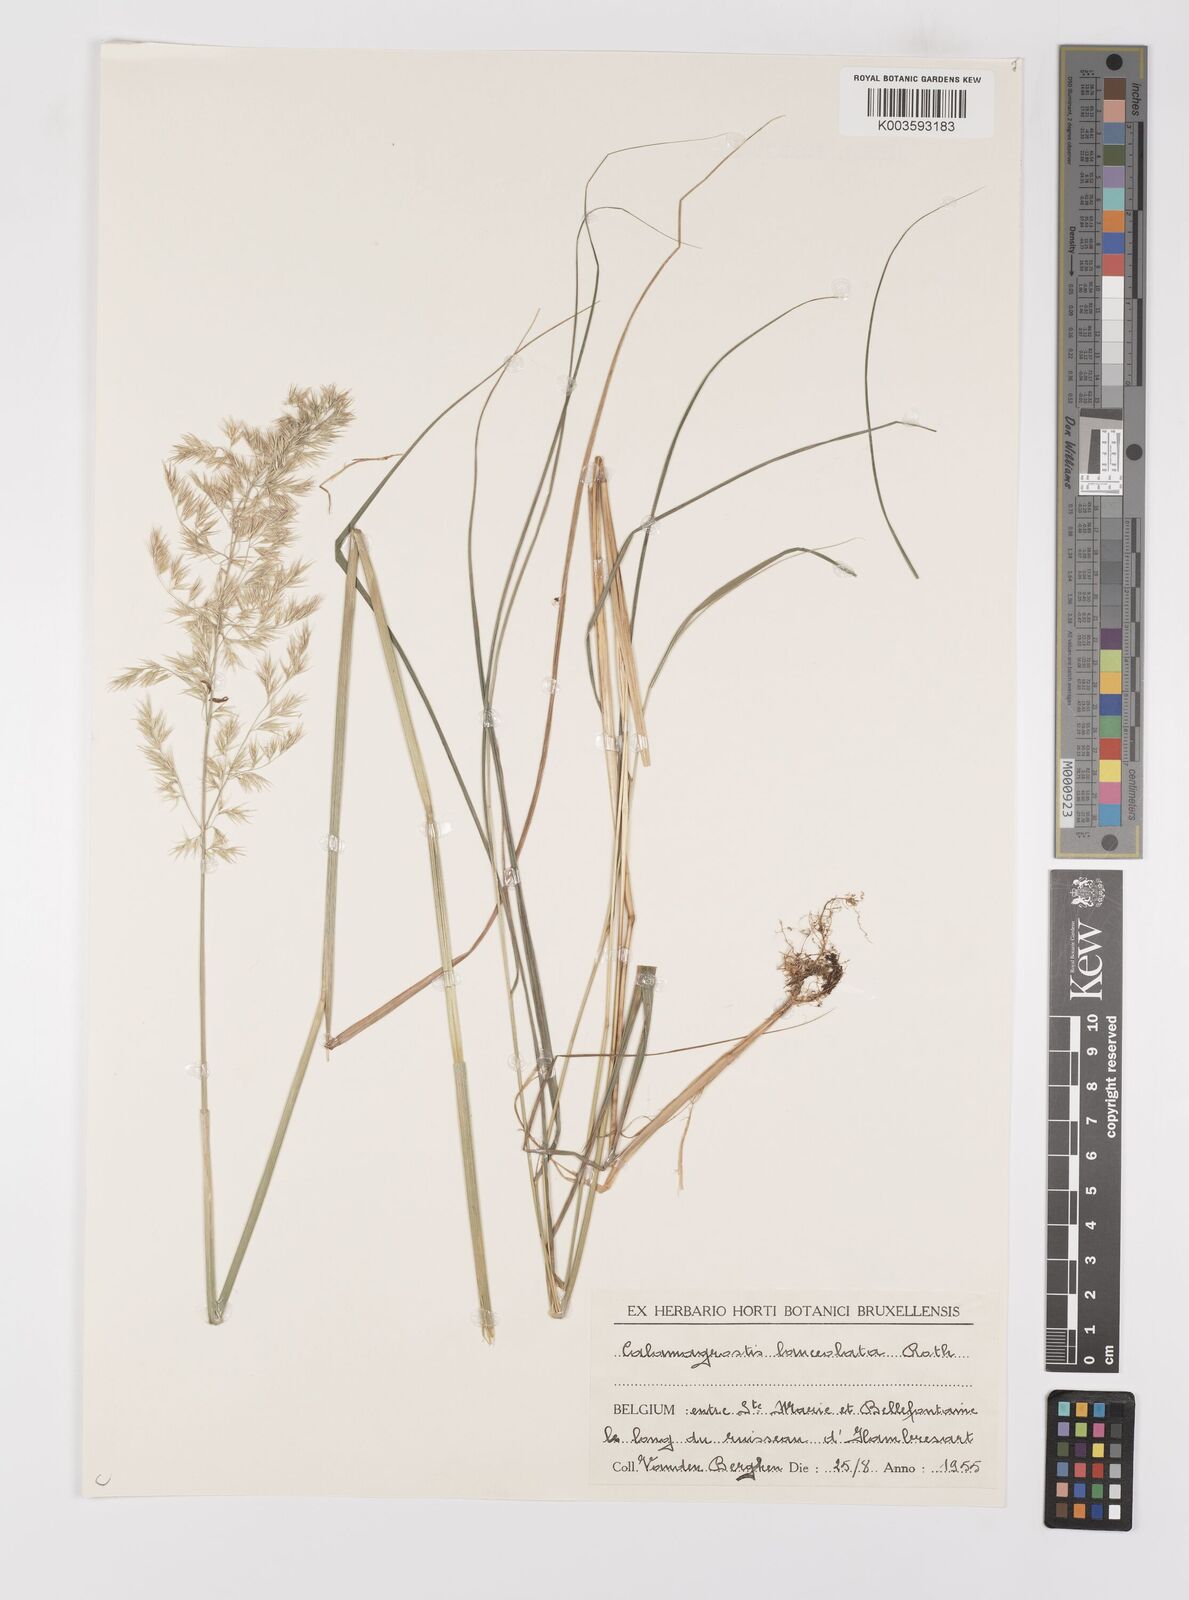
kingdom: Plantae
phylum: Tracheophyta
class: Liliopsida
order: Poales
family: Poaceae
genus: Calamagrostis
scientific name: Calamagrostis
